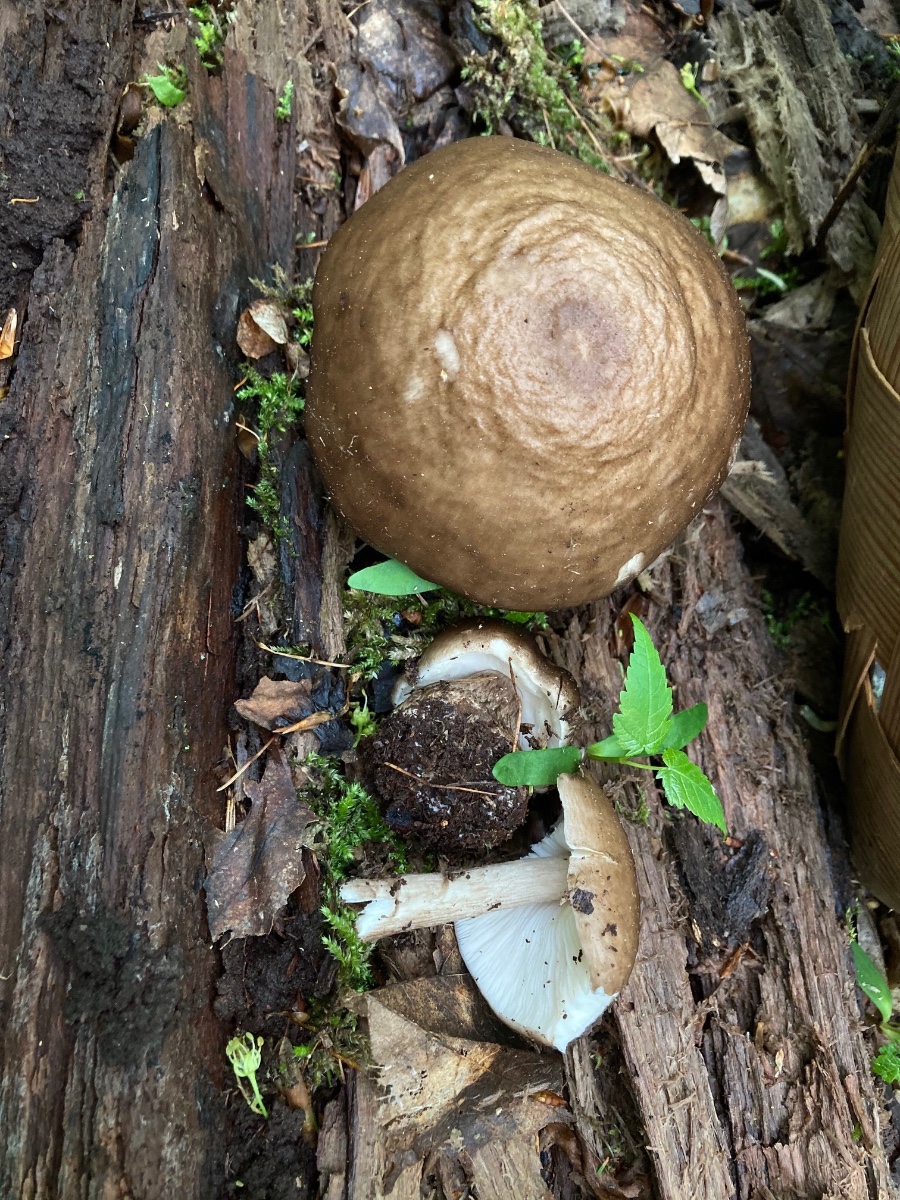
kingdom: Fungi
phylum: Basidiomycota
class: Agaricomycetes
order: Agaricales
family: Pluteaceae
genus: Pluteus
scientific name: Pluteus cervinus
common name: sodfarvet skærmhat
